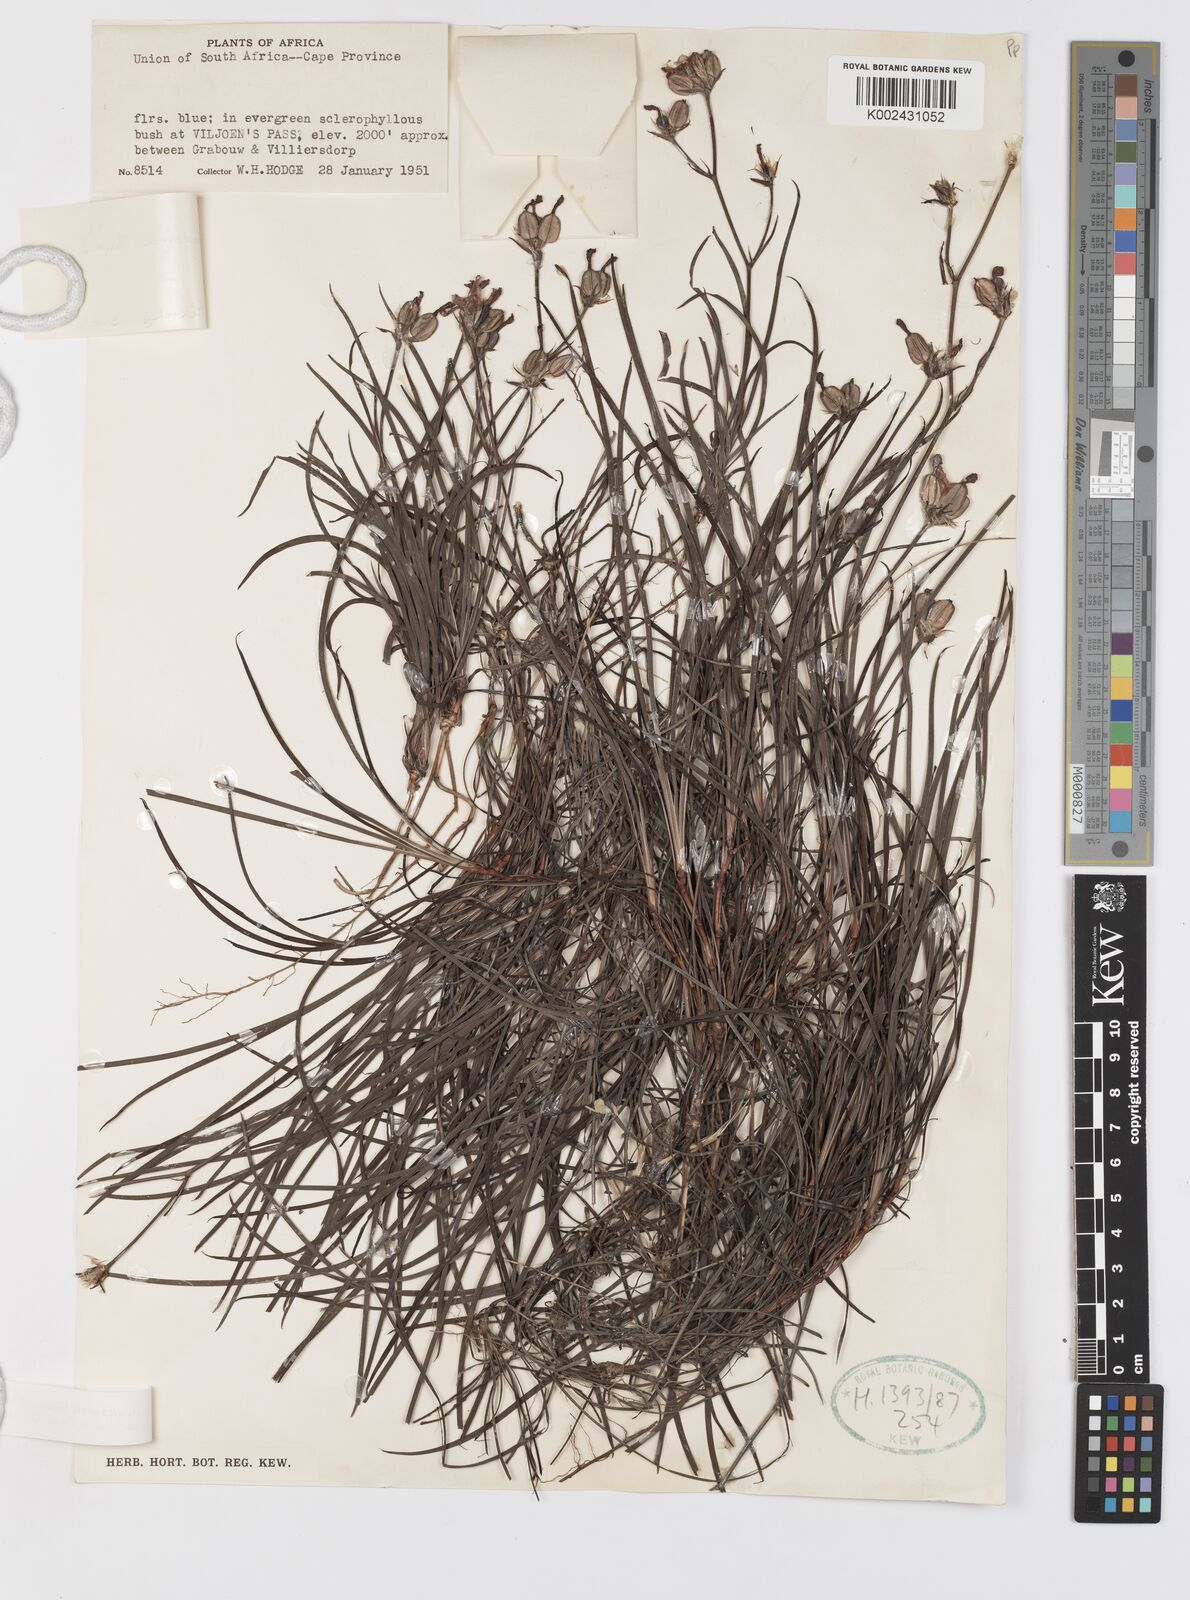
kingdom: Plantae
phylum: Tracheophyta
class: Liliopsida
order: Asparagales
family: Iridaceae
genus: Aristea
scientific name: Aristea dichotoma
